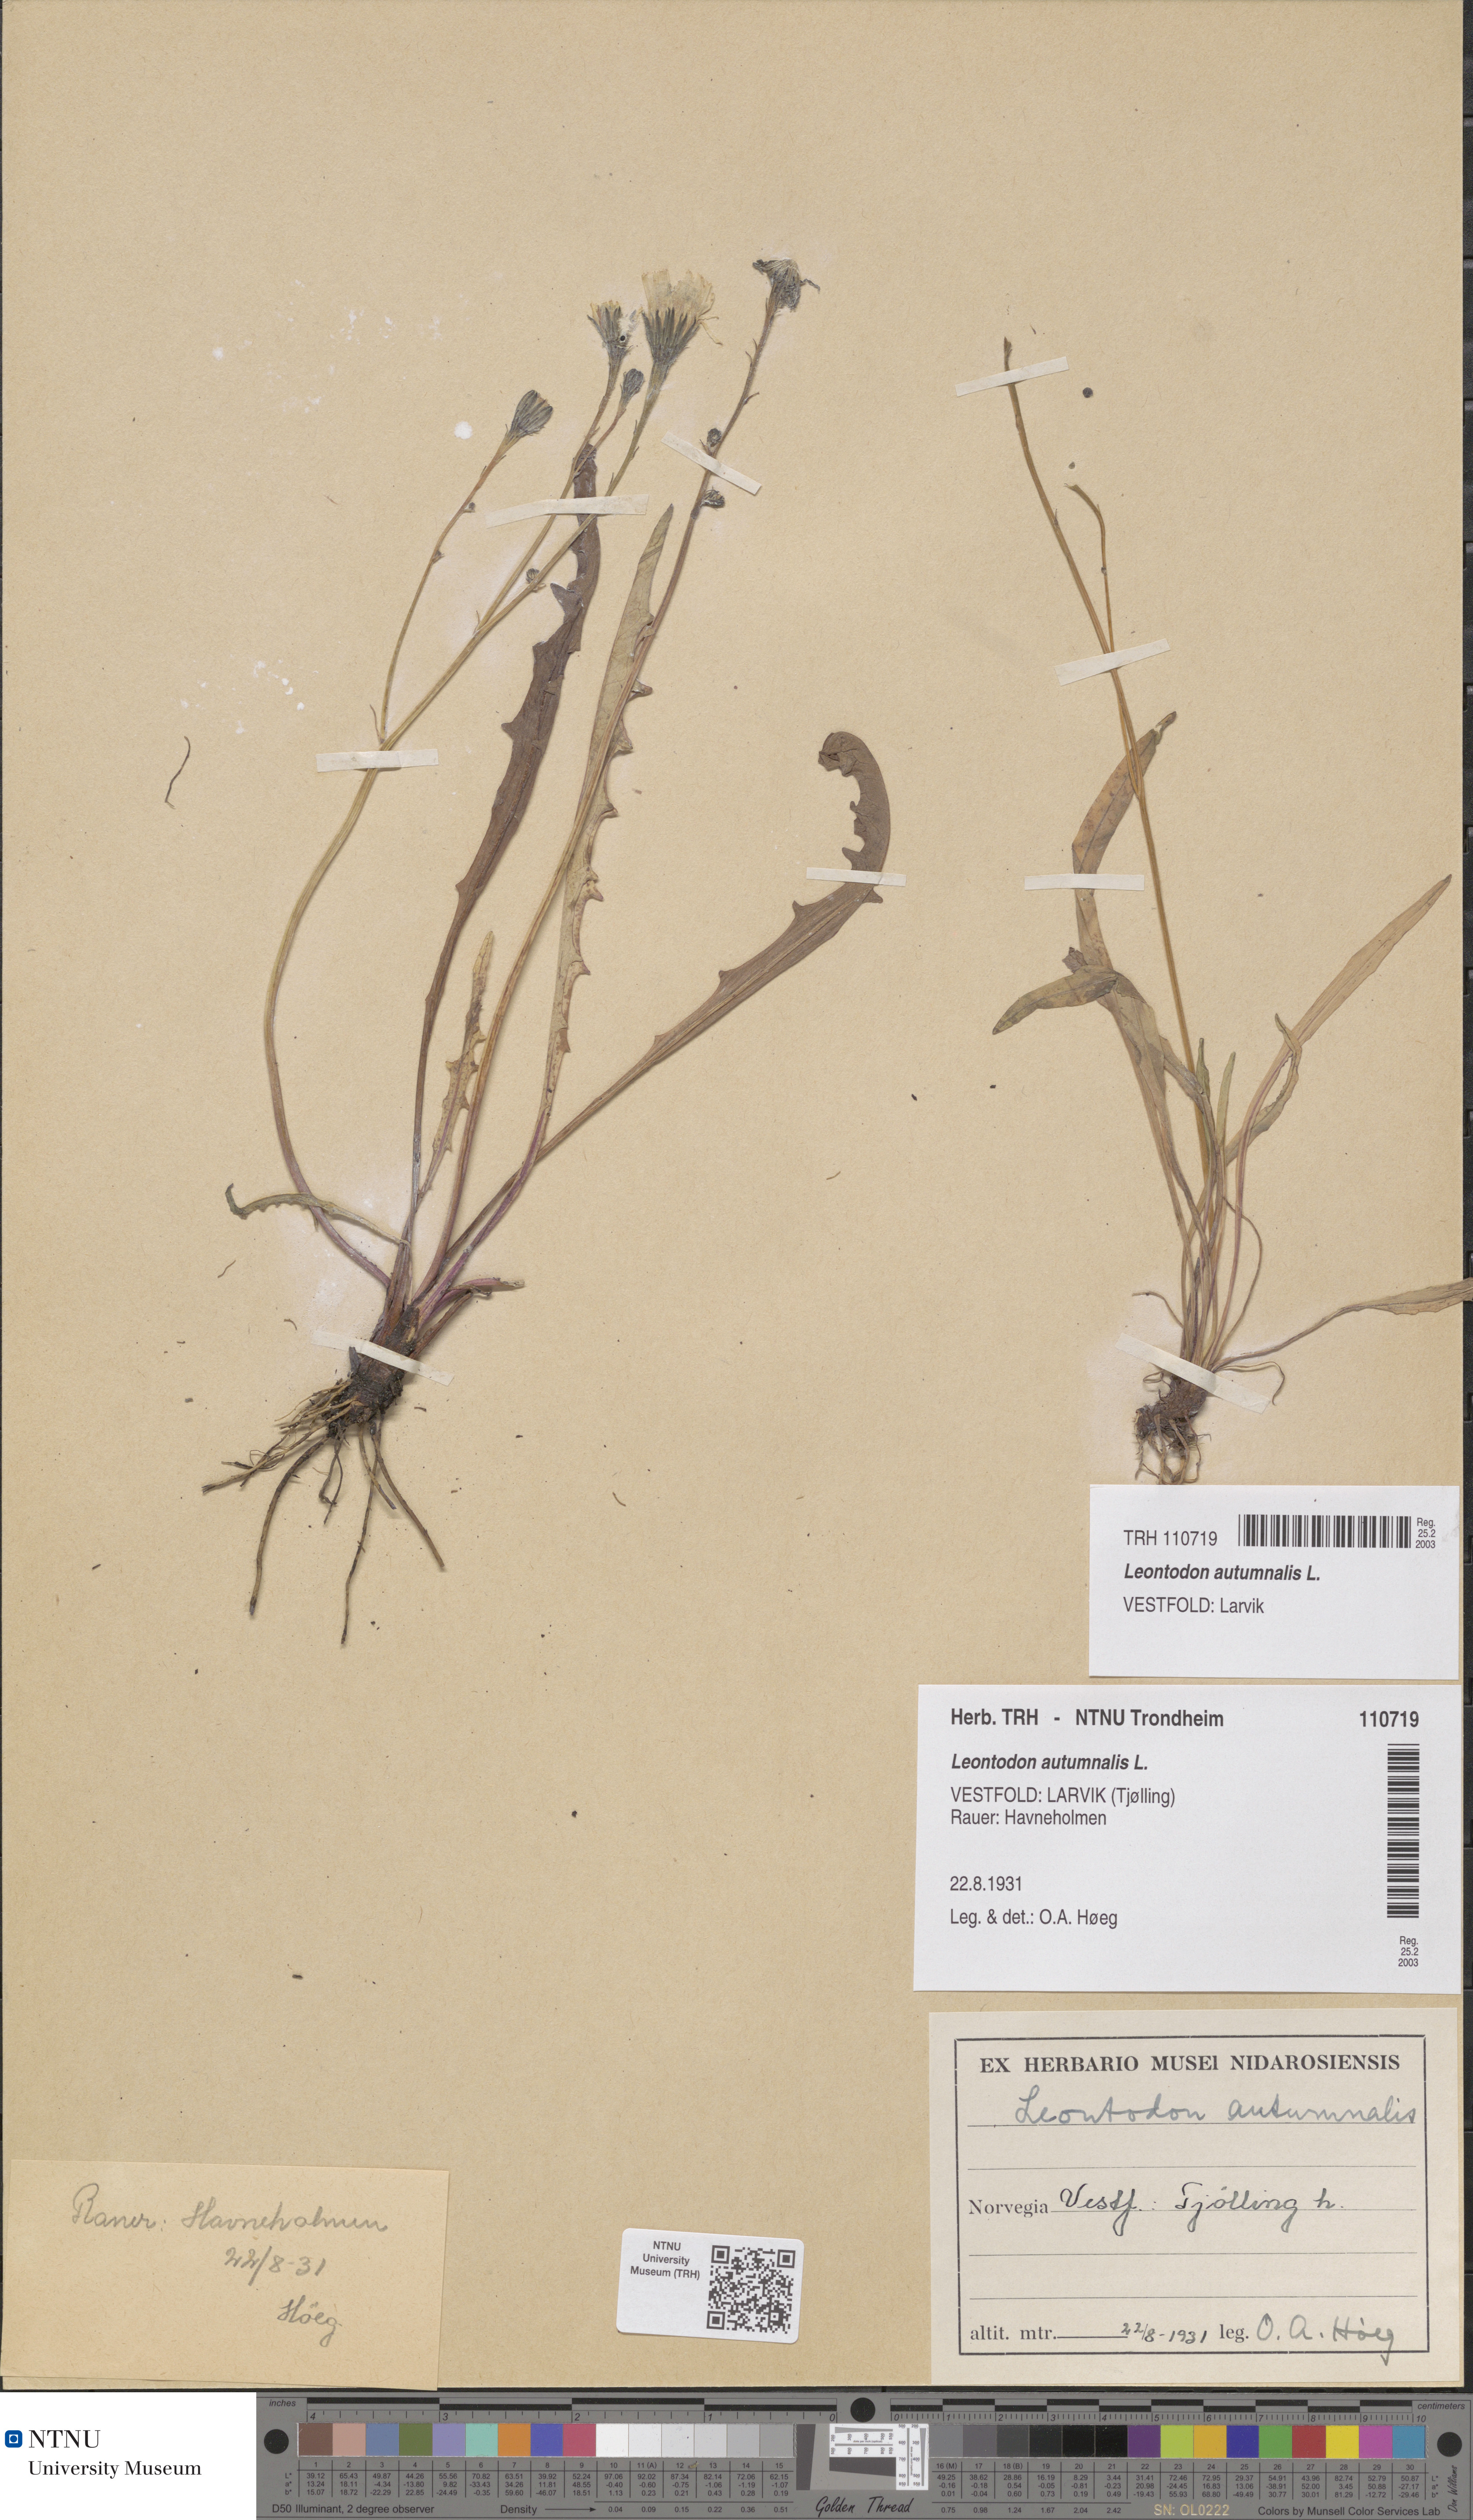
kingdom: Plantae
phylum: Tracheophyta
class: Magnoliopsida
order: Asterales
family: Asteraceae
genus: Scorzoneroides
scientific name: Scorzoneroides autumnalis
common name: Autumn hawkbit
